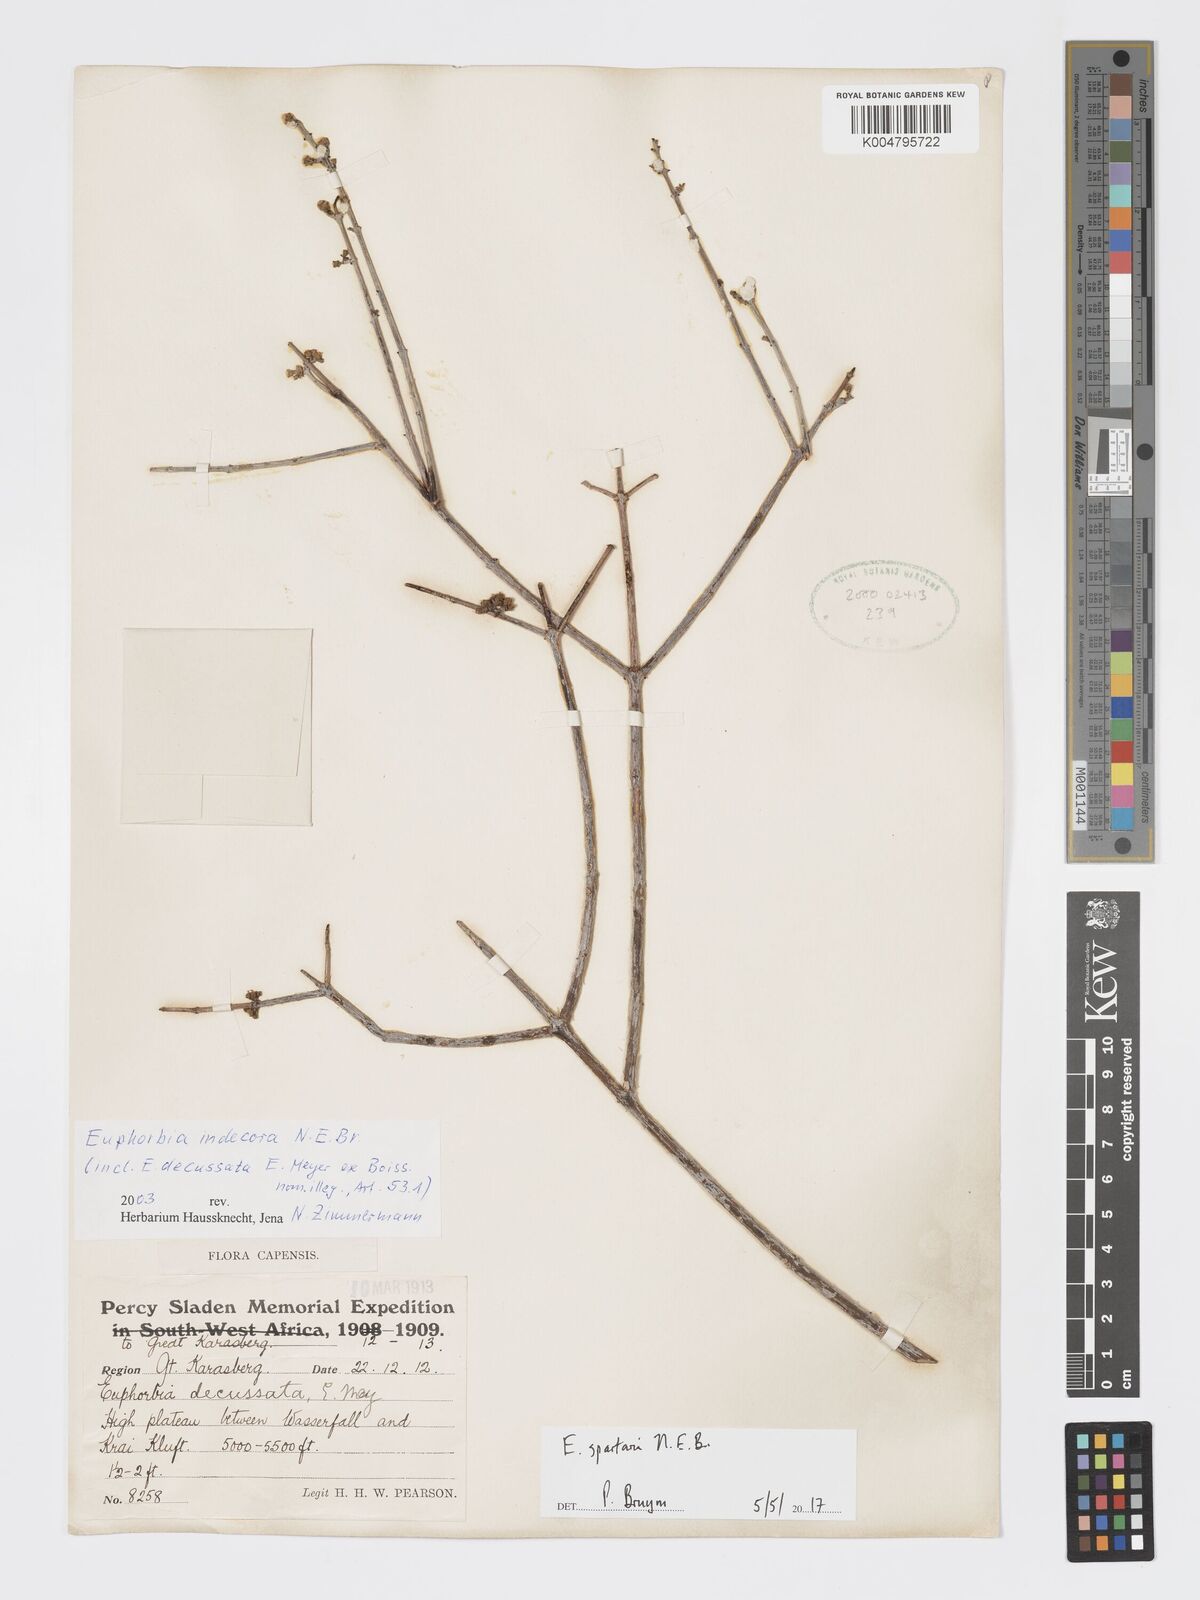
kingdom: Plantae
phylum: Tracheophyta
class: Magnoliopsida
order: Malpighiales
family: Euphorbiaceae
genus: Euphorbia
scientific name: Euphorbia spartaria
